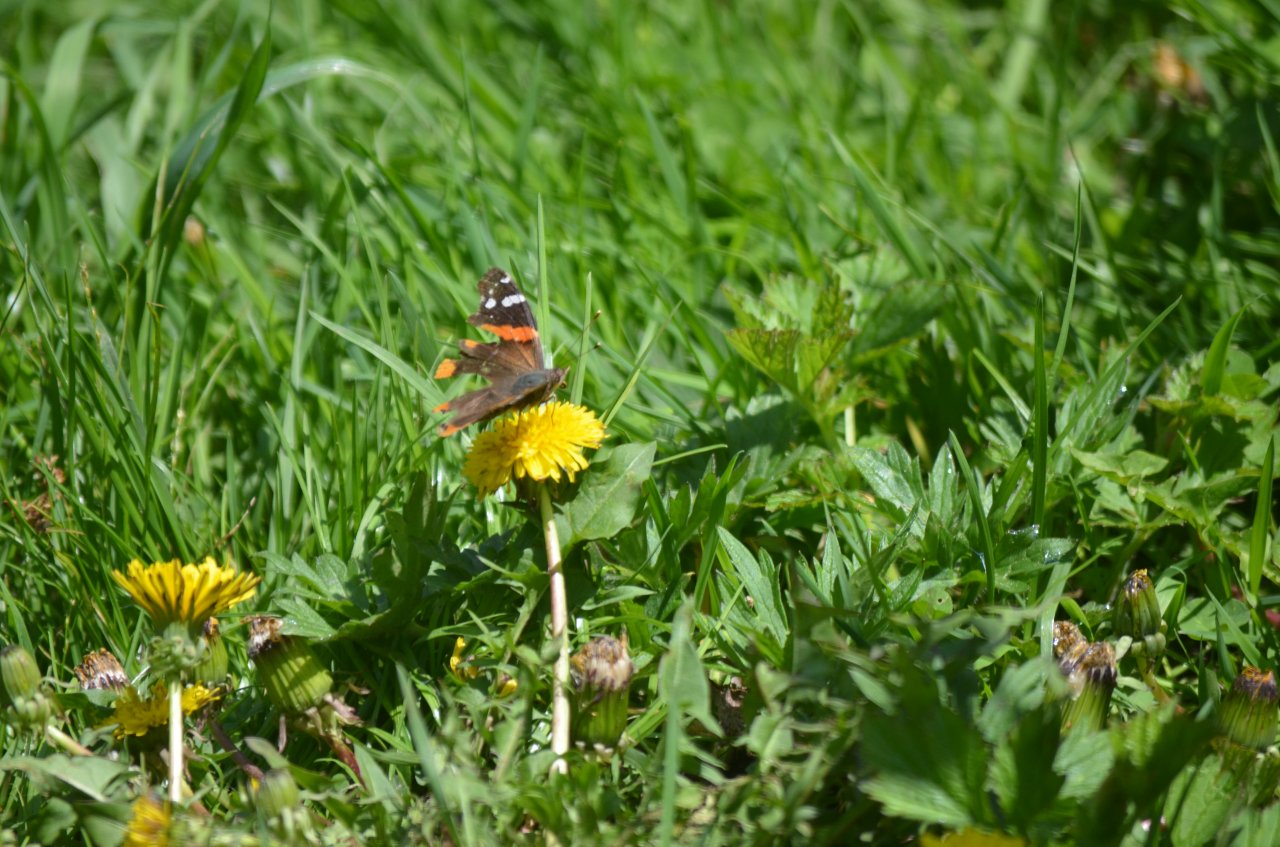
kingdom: Animalia
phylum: Arthropoda
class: Insecta
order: Lepidoptera
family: Nymphalidae
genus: Vanessa
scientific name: Vanessa atalanta
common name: Red Admiral
